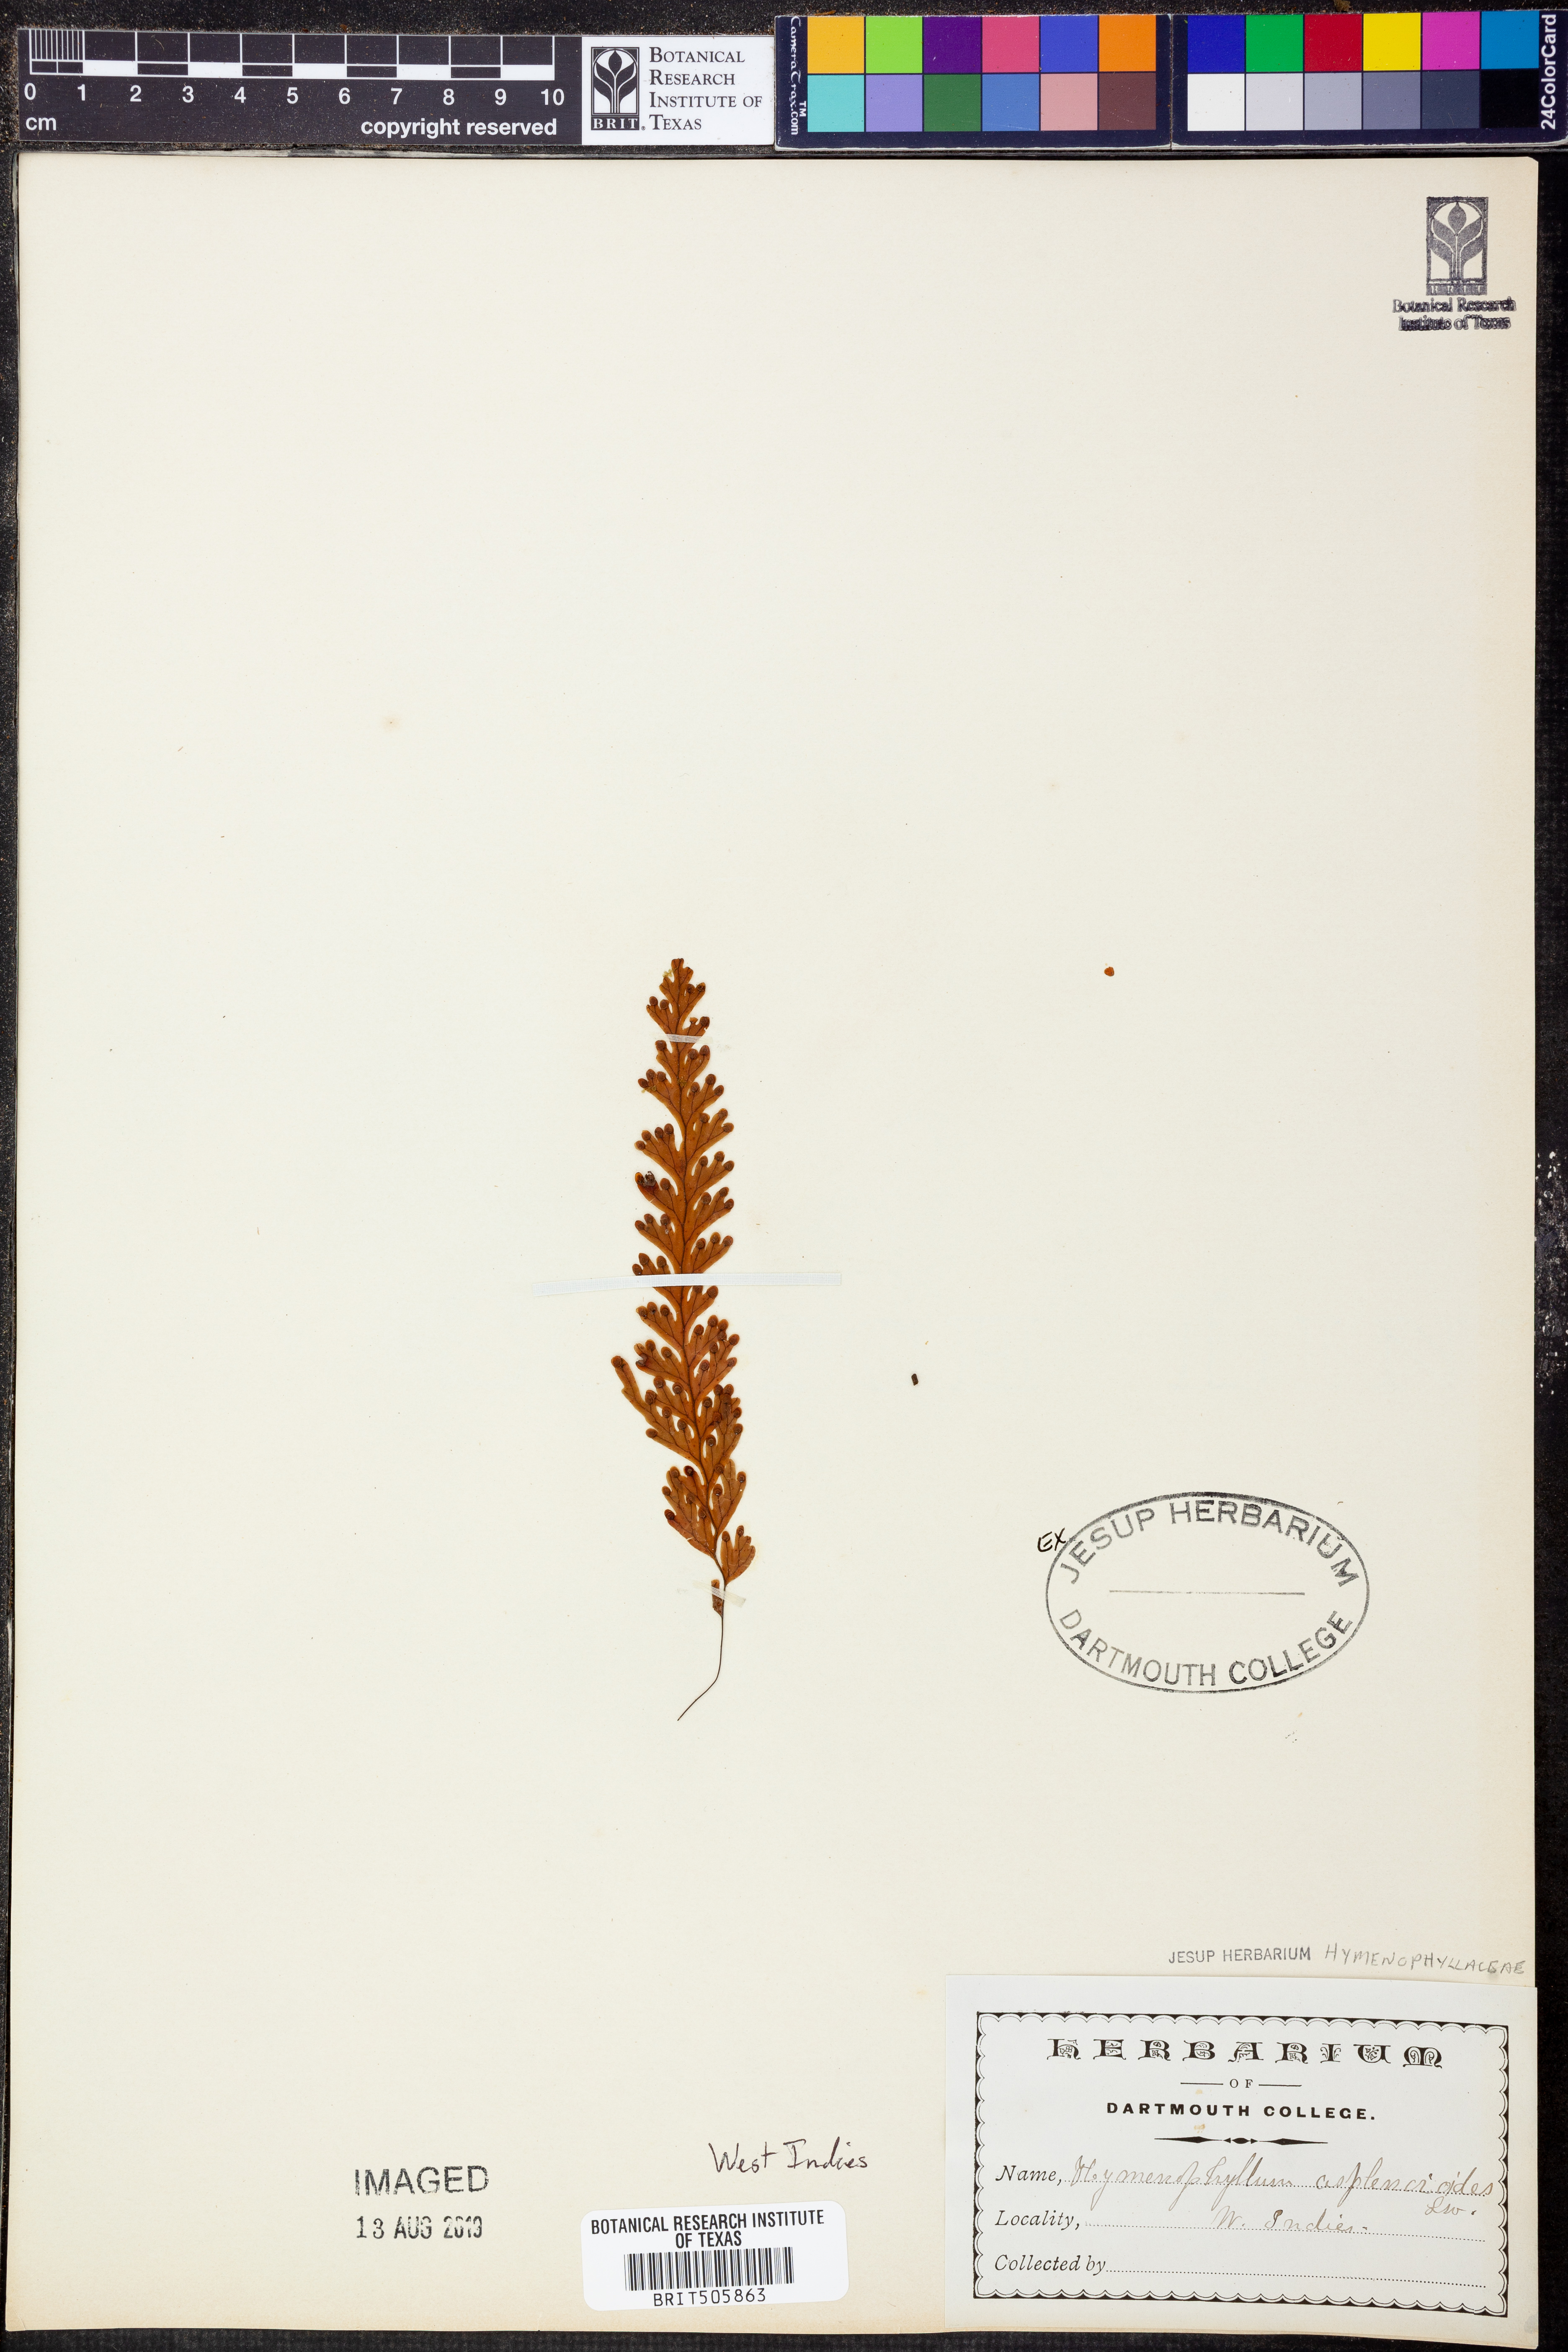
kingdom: Plantae
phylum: Tracheophyta
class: Polypodiopsida
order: Hymenophyllales
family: Hymenophyllaceae
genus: Hymenophyllum
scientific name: Hymenophyllum asplenioides
